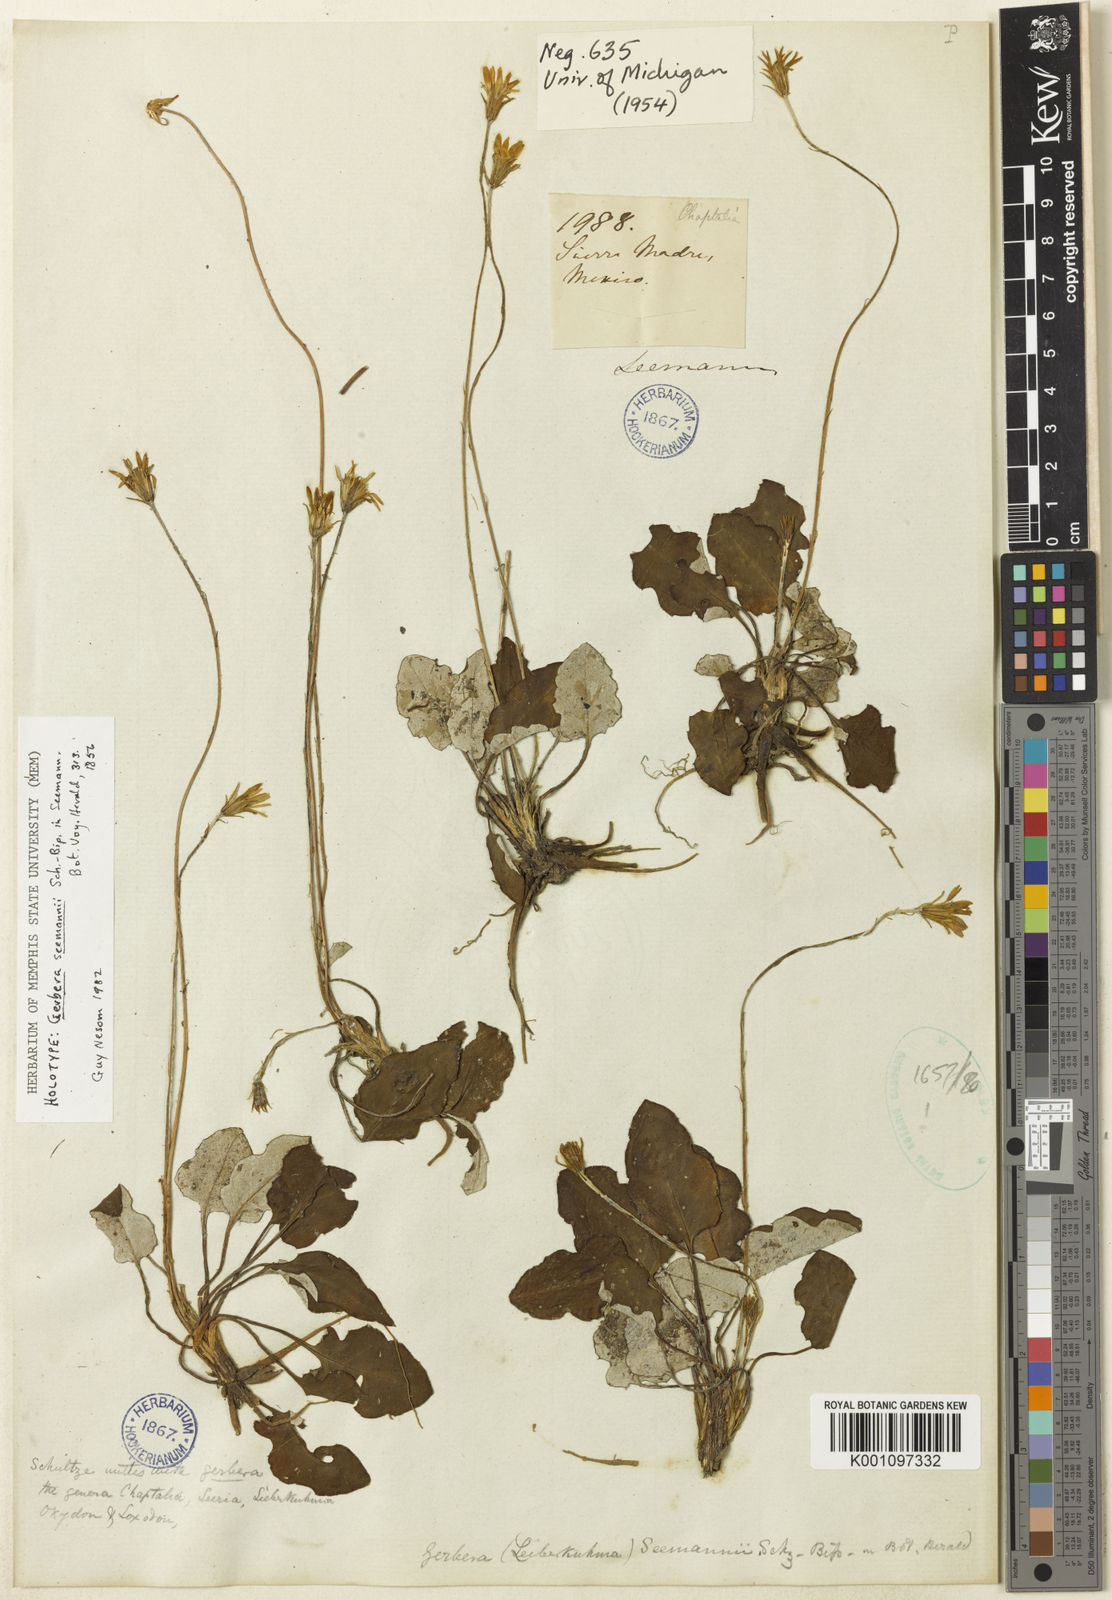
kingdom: Plantae
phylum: Tracheophyta
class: Magnoliopsida
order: Asterales
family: Asteraceae
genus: Leibnitzia
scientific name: Leibnitzia lyrata
